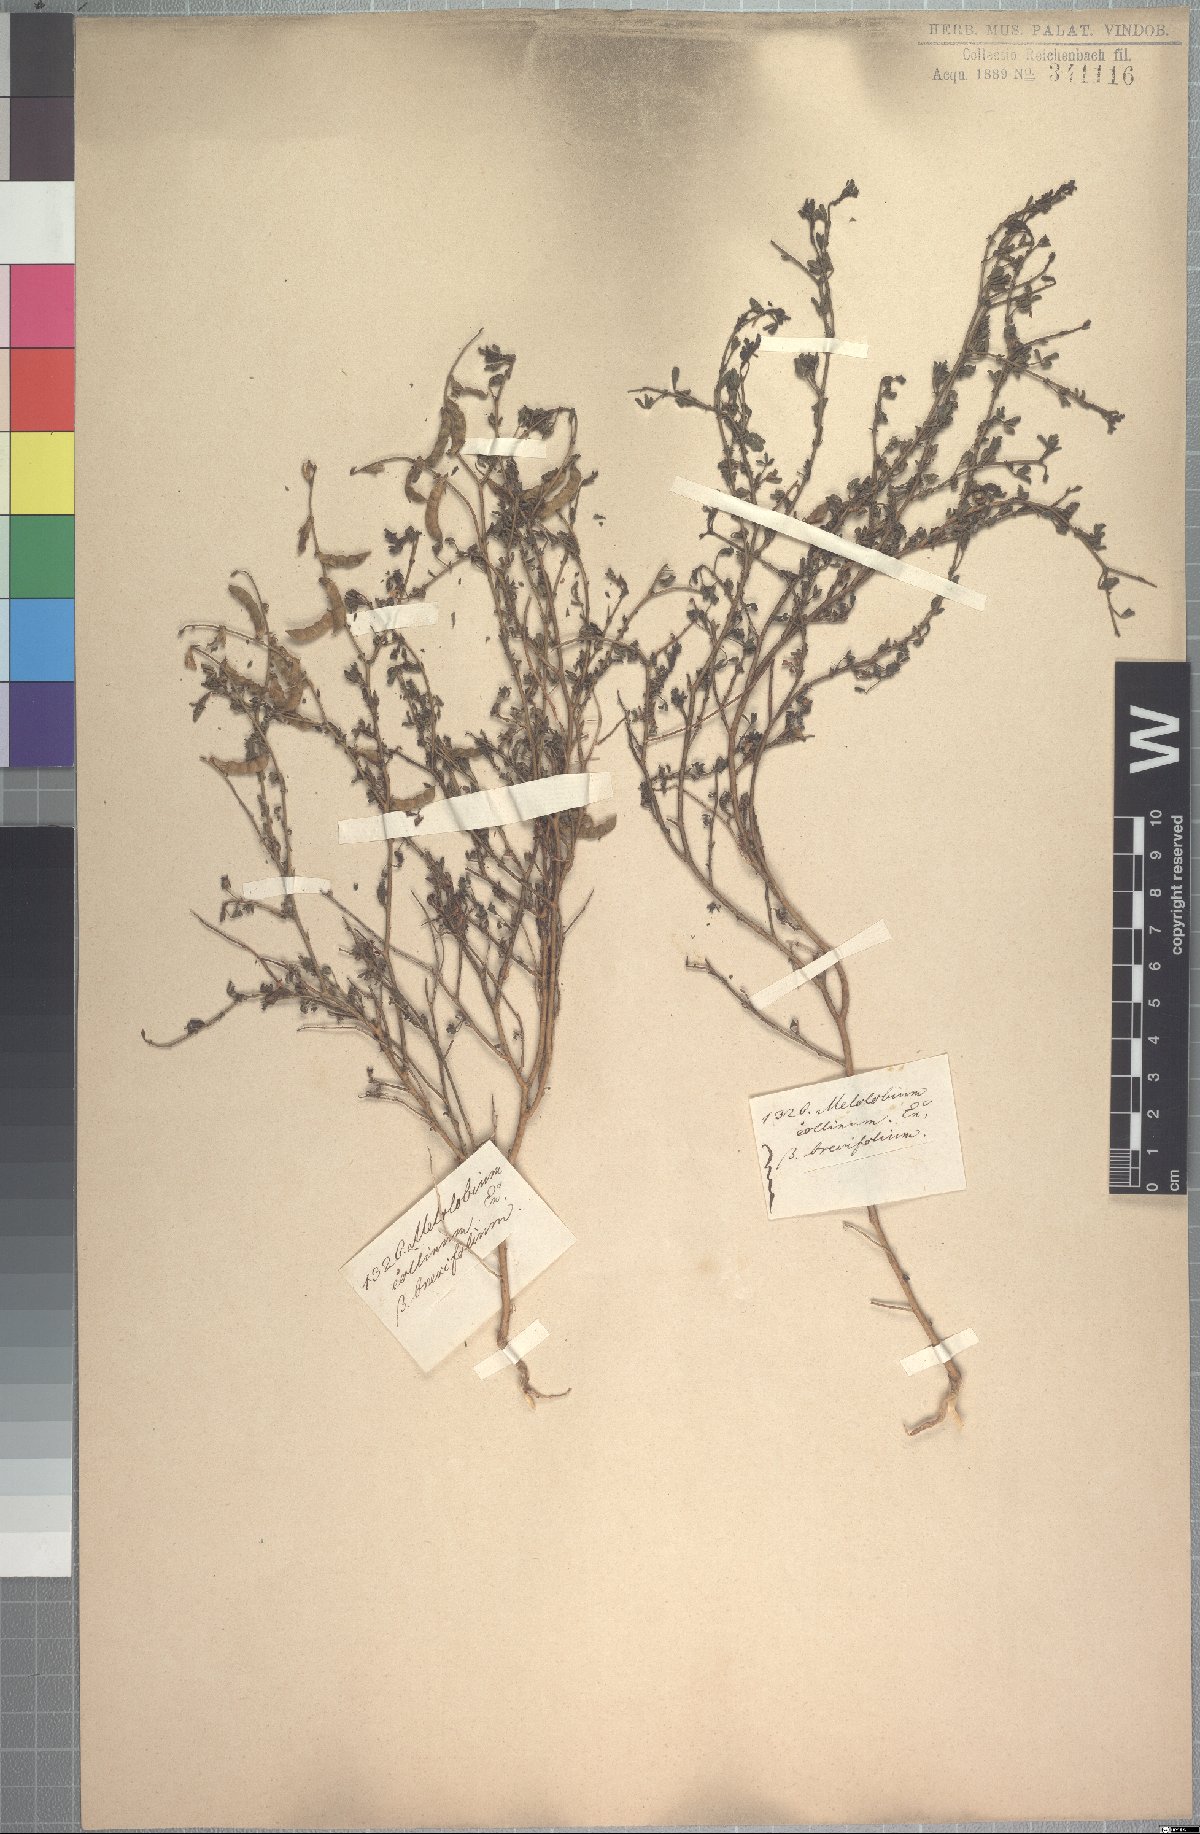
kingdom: Plantae
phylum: Tracheophyta
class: Magnoliopsida
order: Fabales
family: Fabaceae
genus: Melolobium
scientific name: Melolobium adenodes
